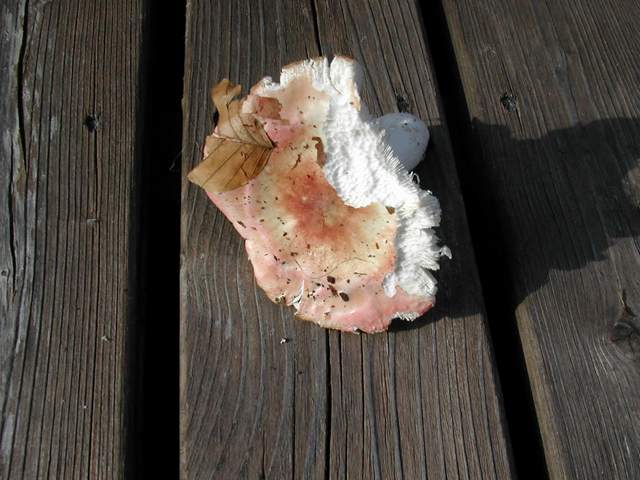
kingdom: Fungi
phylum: Basidiomycota
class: Agaricomycetes
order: Russulales
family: Russulaceae
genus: Russula
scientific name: Russula aurora
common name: rosa skørhat
